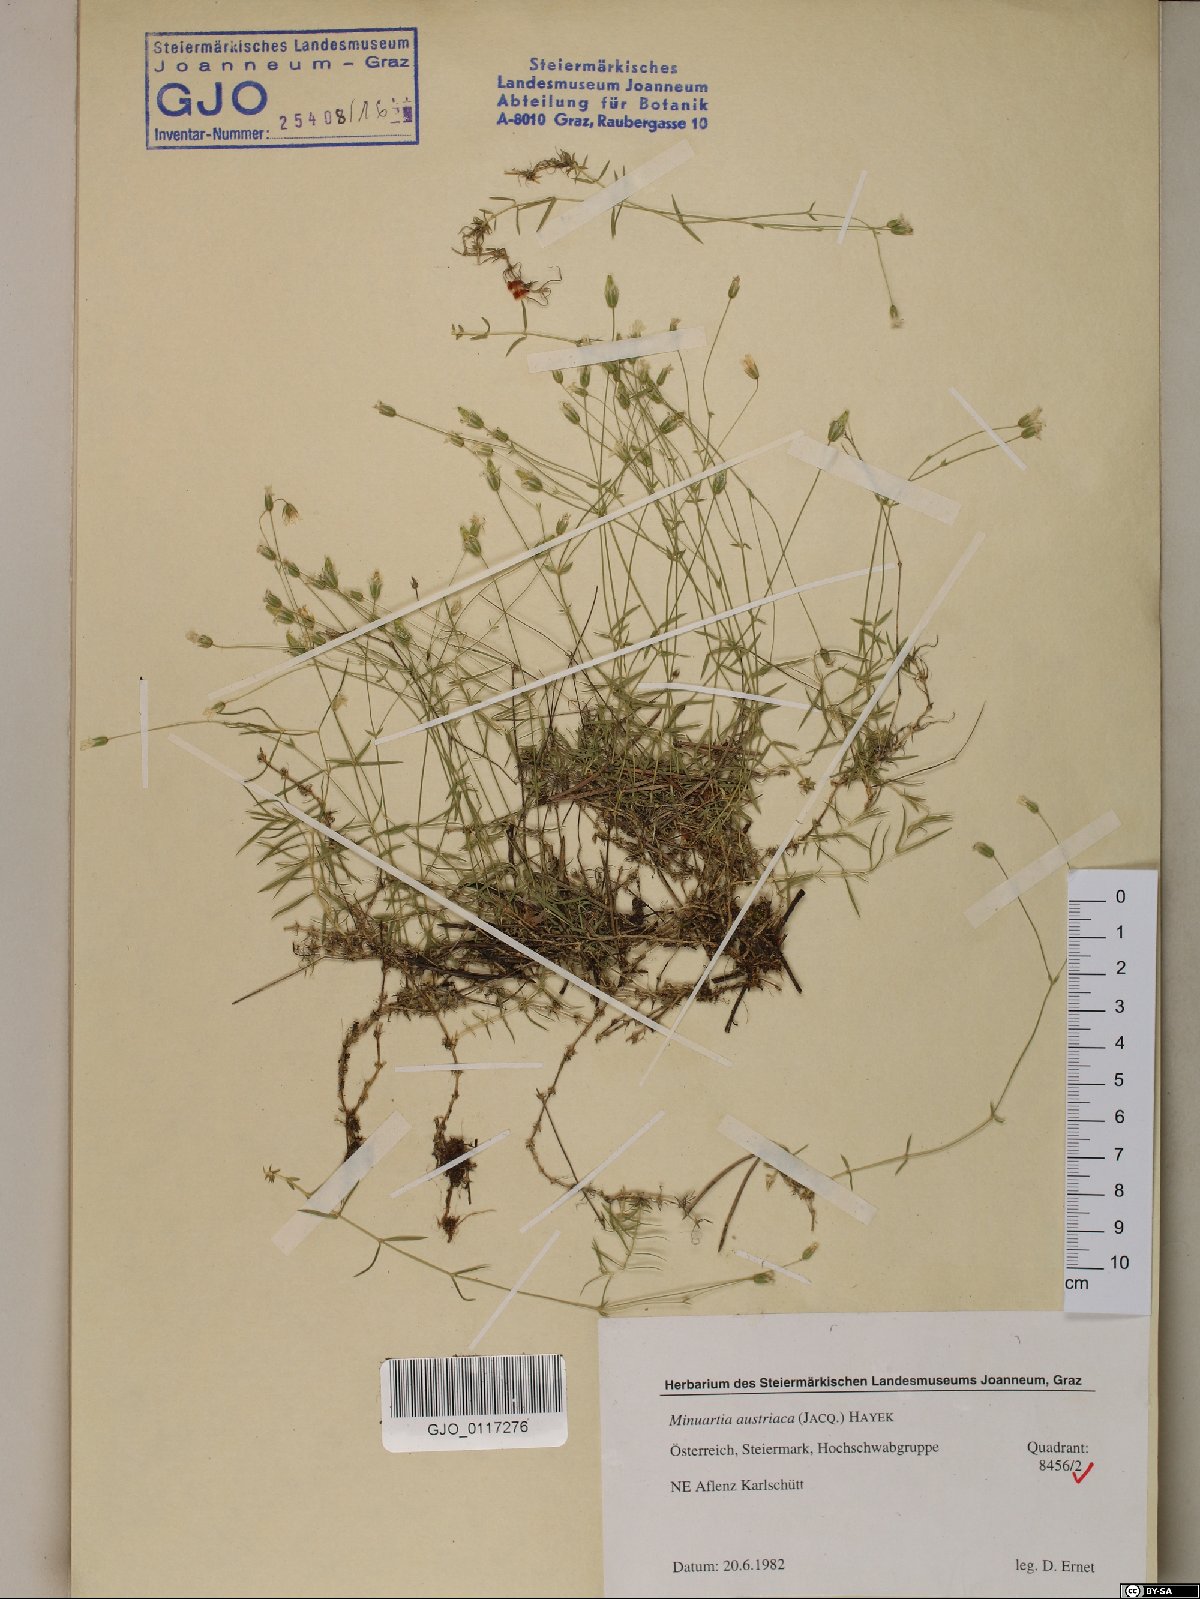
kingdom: Plantae
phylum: Tracheophyta
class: Magnoliopsida
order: Caryophyllales
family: Caryophyllaceae
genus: Sabulina
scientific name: Sabulina austriaca
